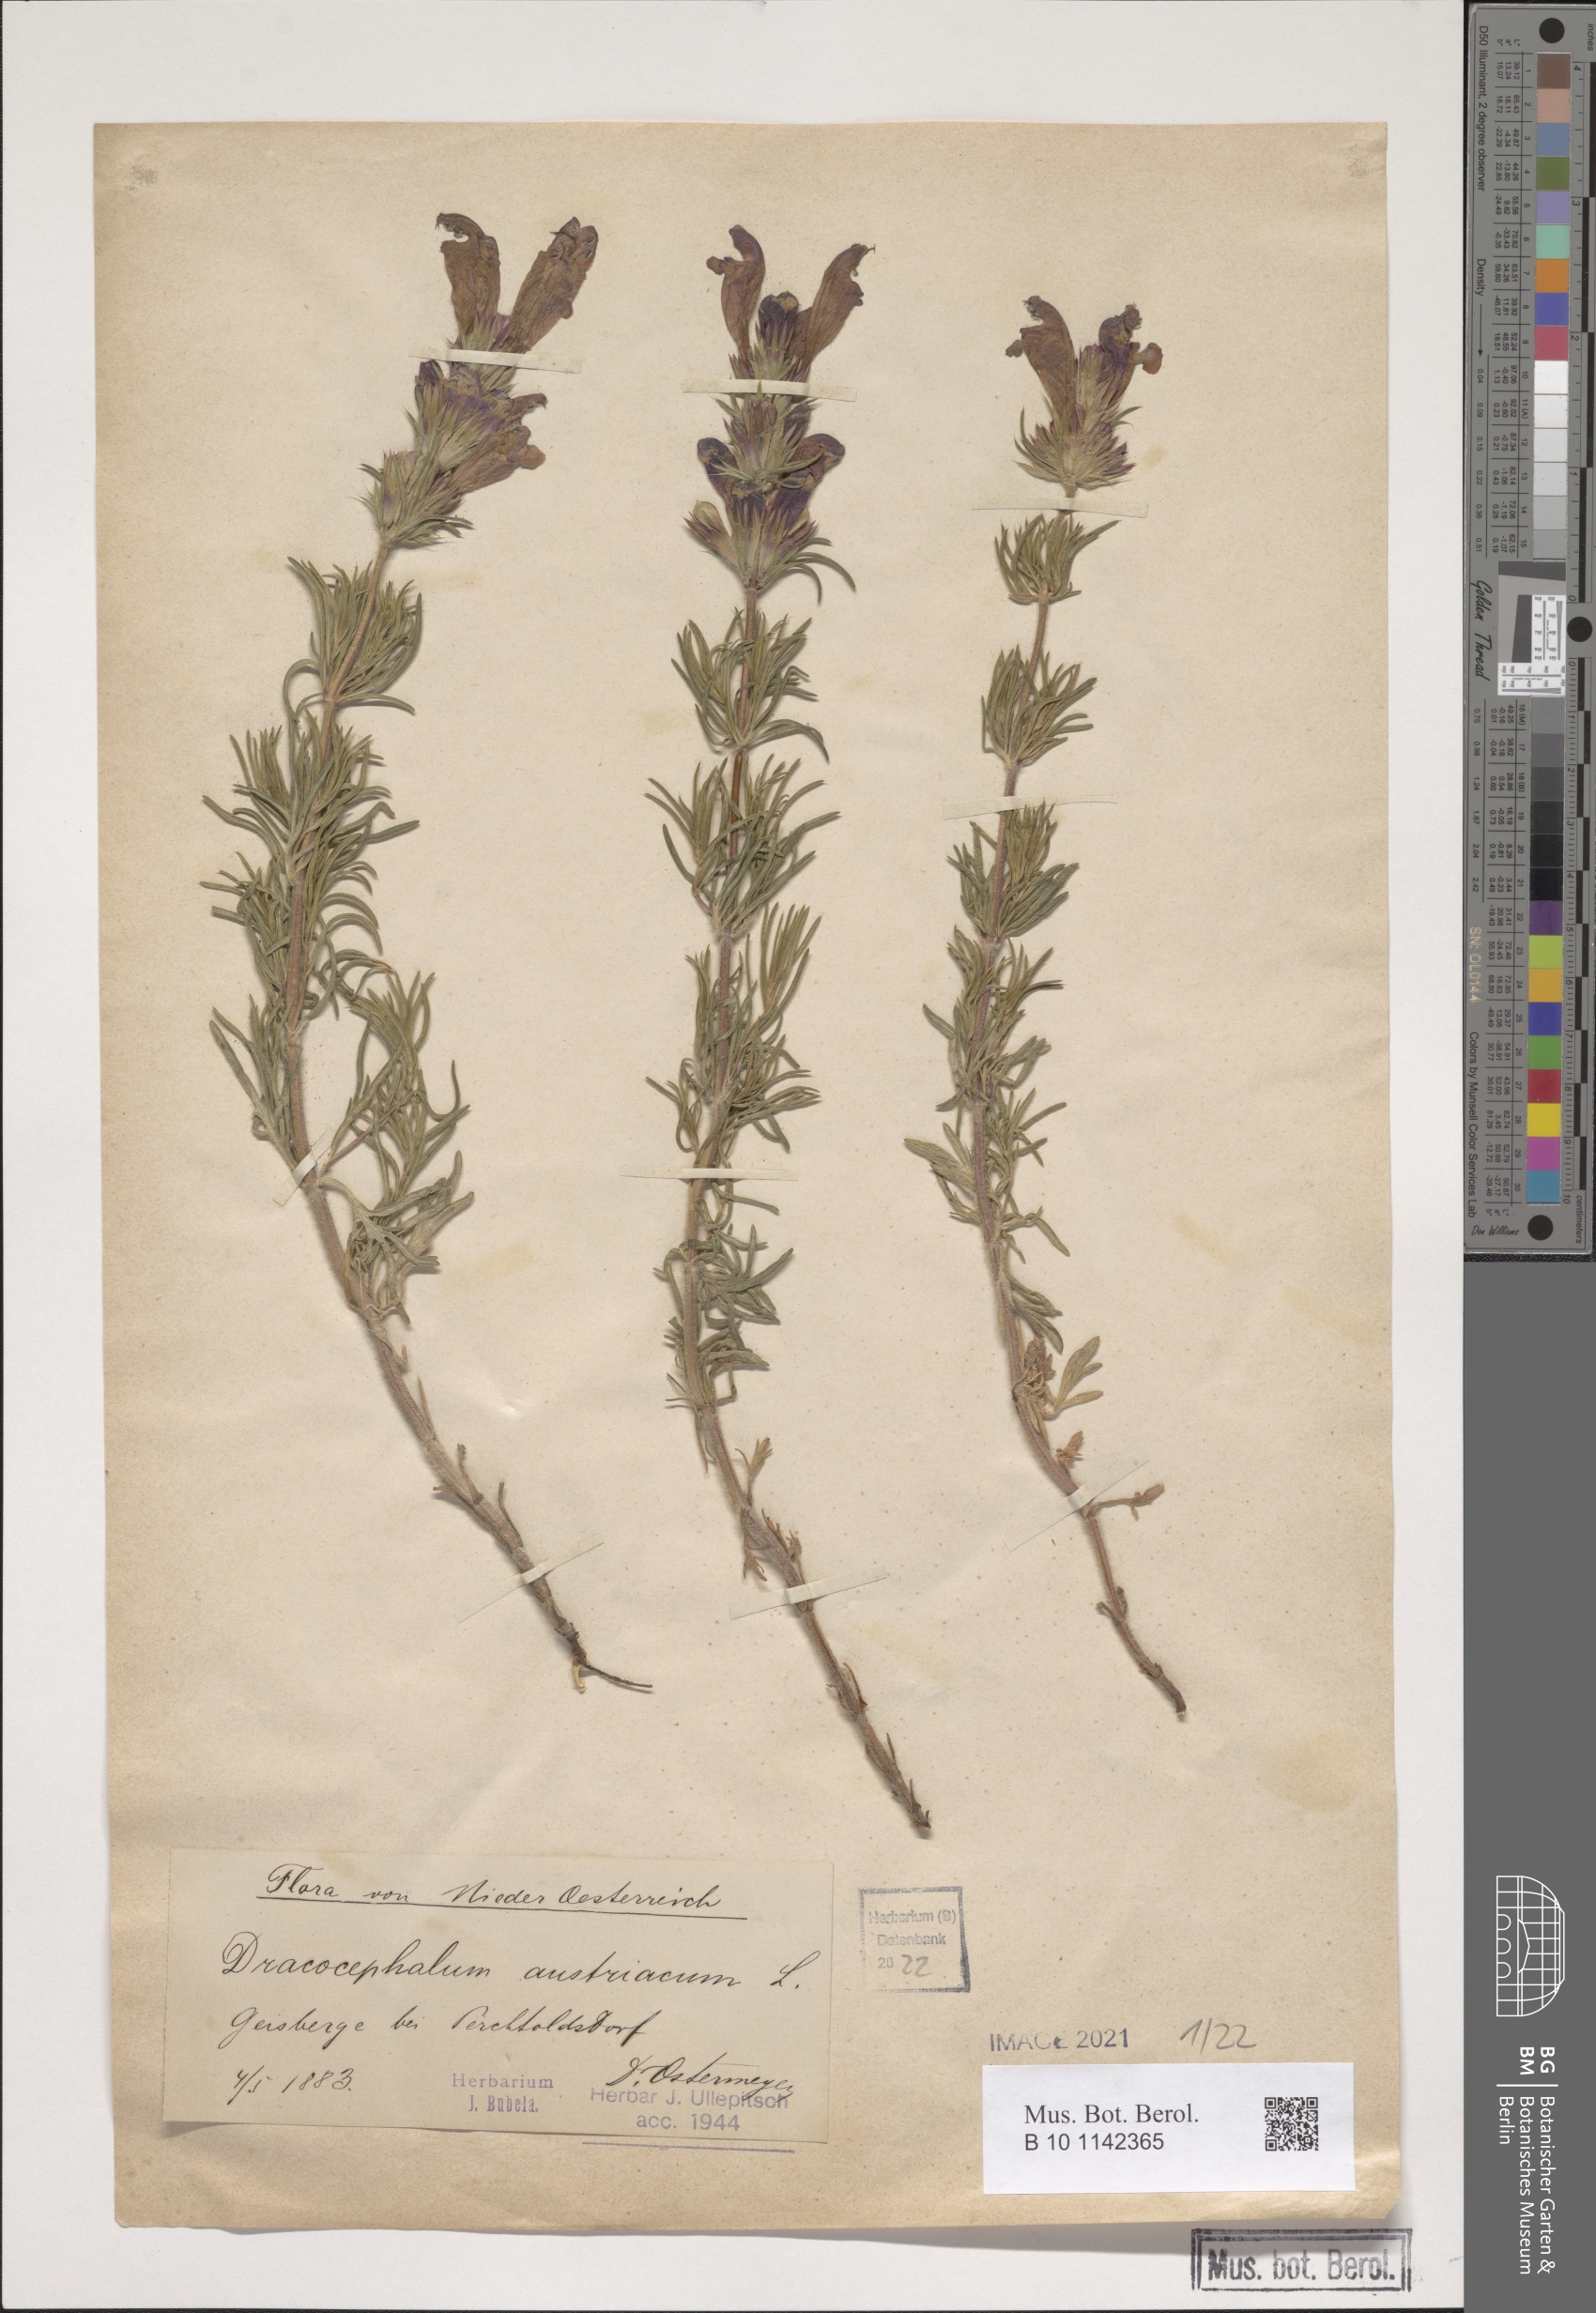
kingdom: Plantae
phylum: Tracheophyta
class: Magnoliopsida
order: Lamiales
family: Lamiaceae
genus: Dracocephalum
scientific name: Dracocephalum austriacum
